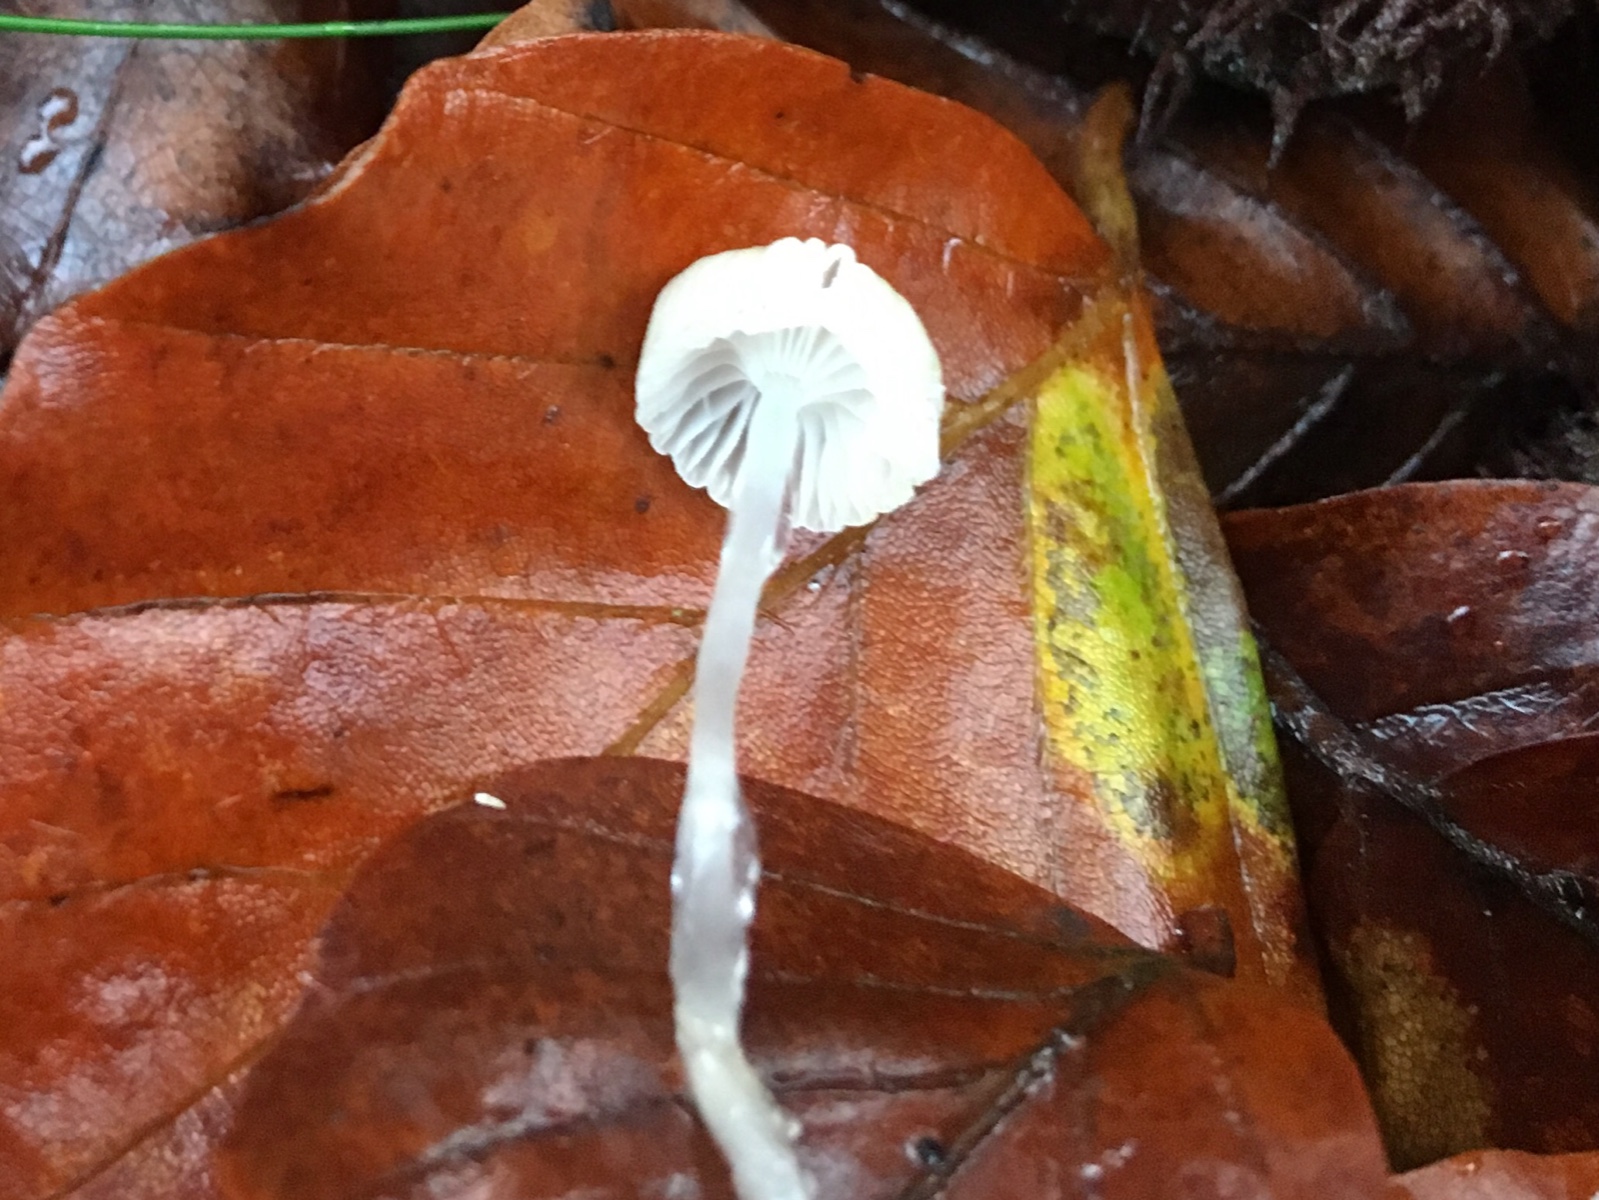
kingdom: Fungi
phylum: Basidiomycota
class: Agaricomycetes
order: Agaricales
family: Mycenaceae
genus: Roridomyces
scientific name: Roridomyces roridus
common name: slimfod
